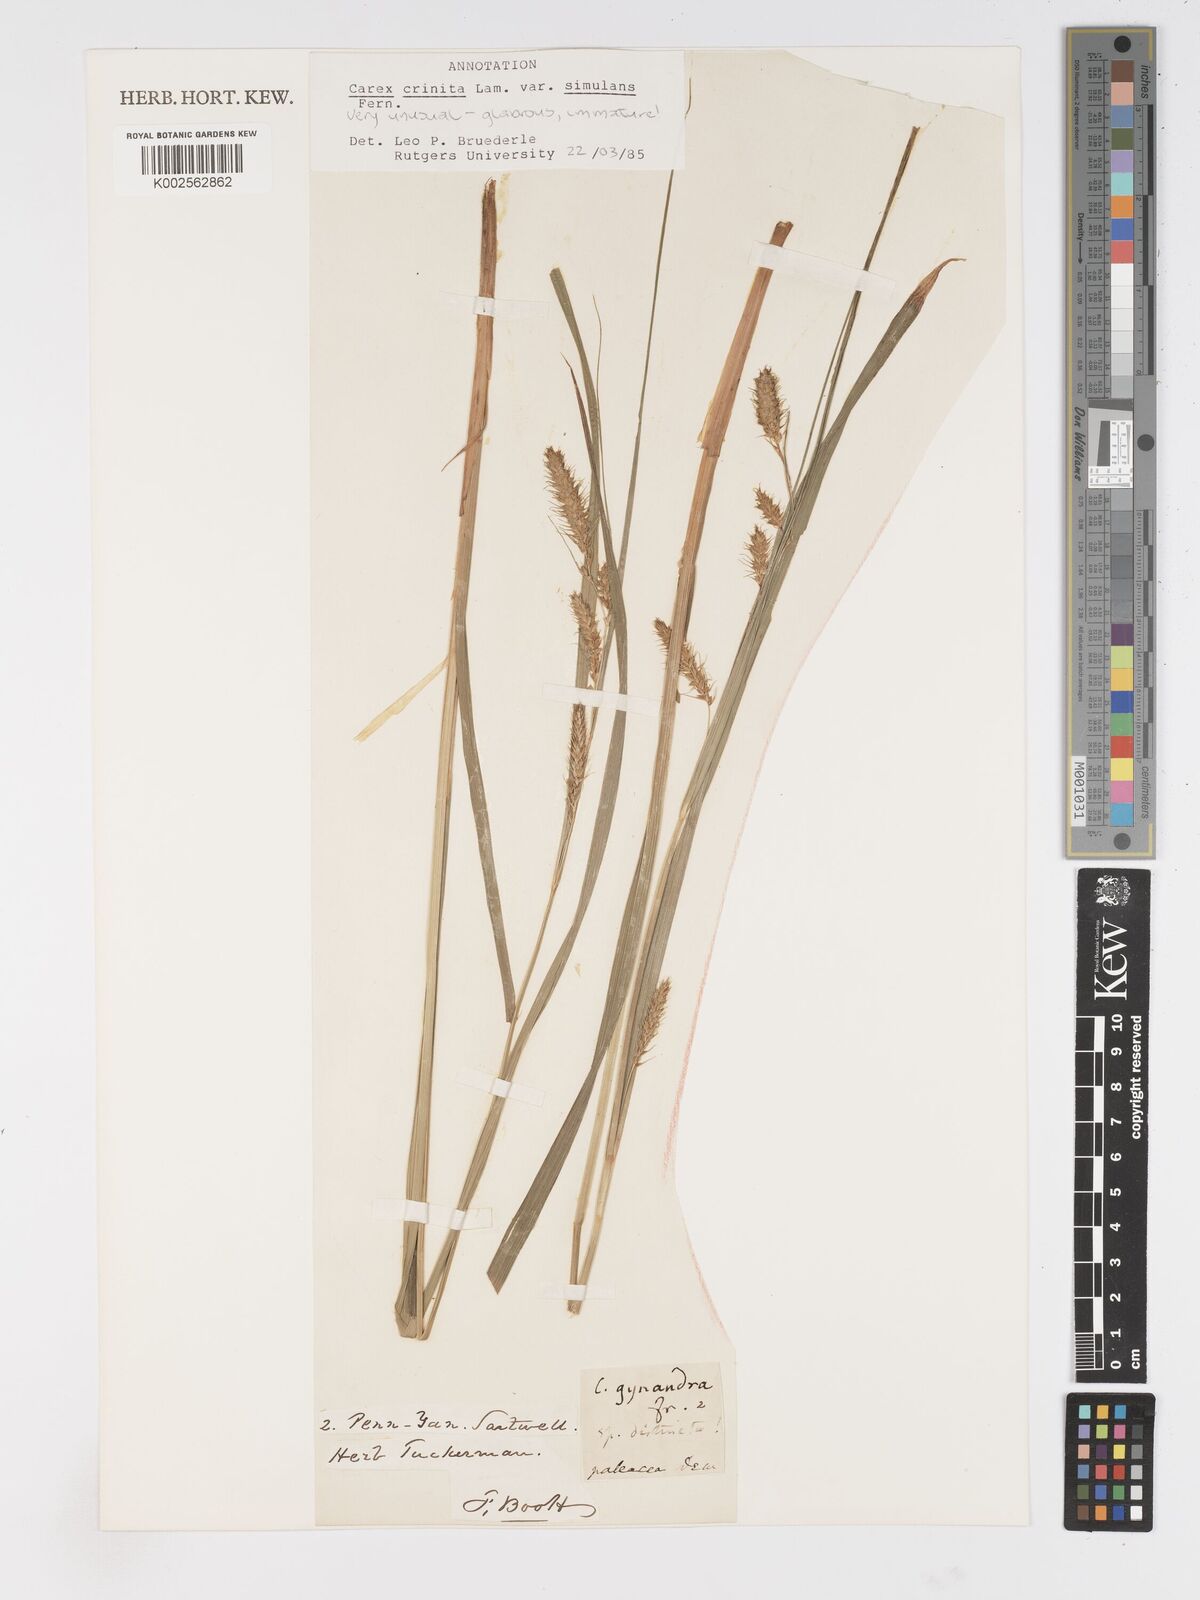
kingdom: Plantae
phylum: Tracheophyta
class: Liliopsida
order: Poales
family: Cyperaceae
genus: Carex
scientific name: Carex gynandra
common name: Nodding sedge
